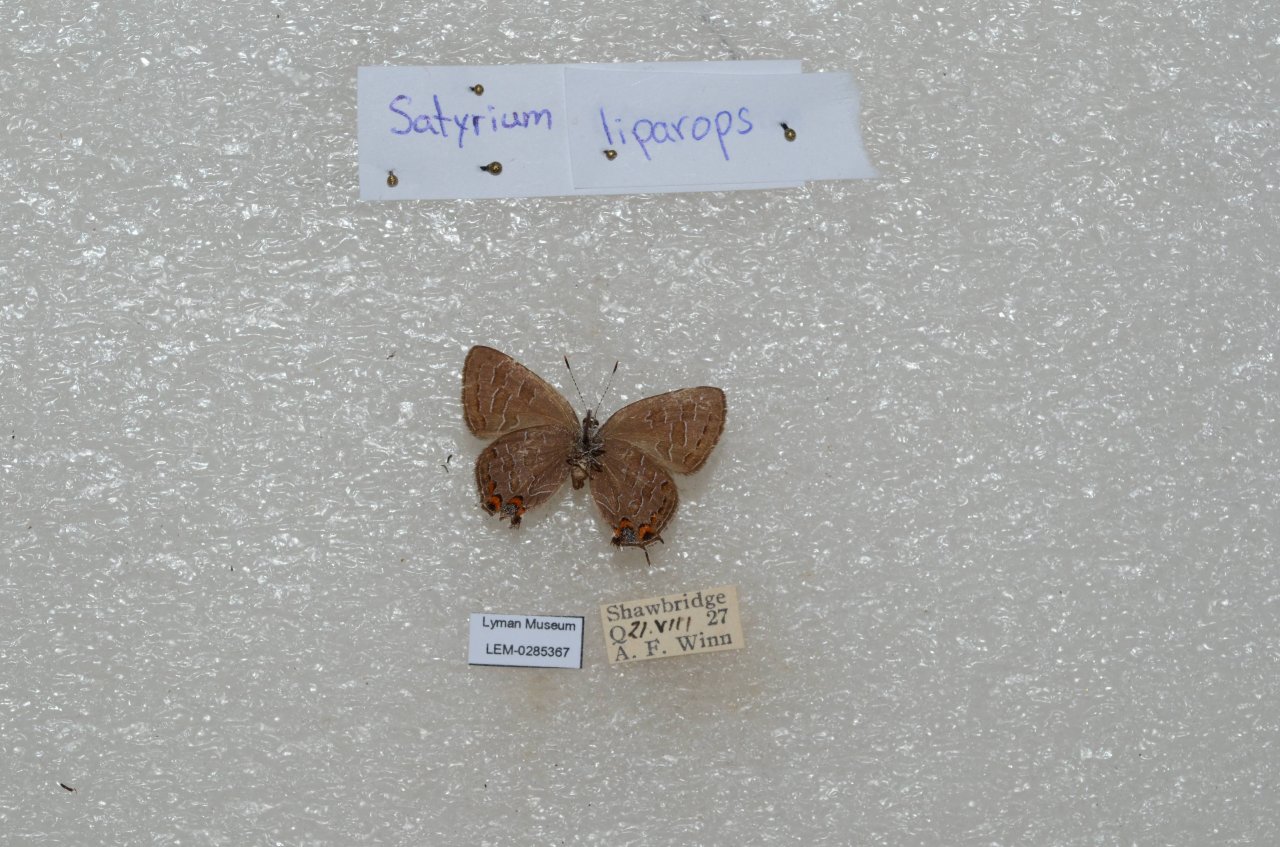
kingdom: Animalia
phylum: Arthropoda
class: Insecta
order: Lepidoptera
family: Lycaenidae
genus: Satyrium
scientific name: Satyrium liparops
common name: Striped Hairstreak
